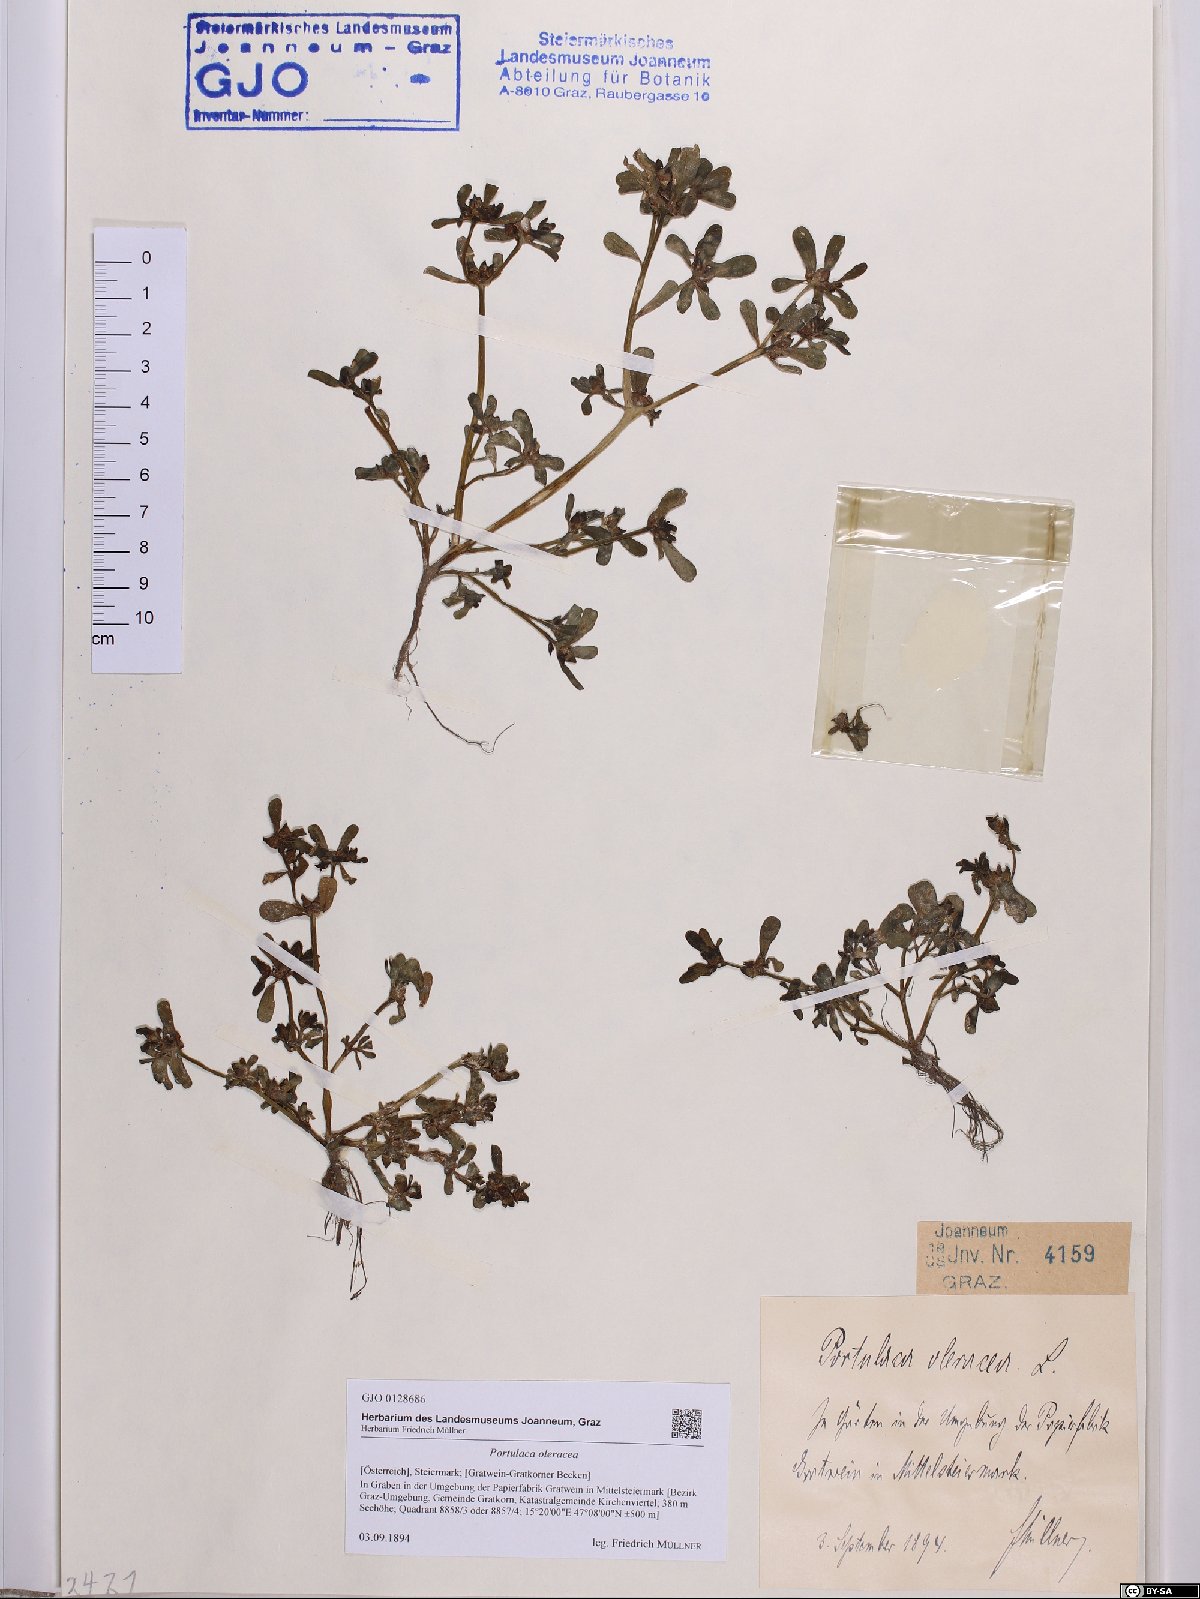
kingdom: Plantae
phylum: Tracheophyta
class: Magnoliopsida
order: Caryophyllales
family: Portulacaceae
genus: Portulaca
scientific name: Portulaca oleracea
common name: Common purslane
